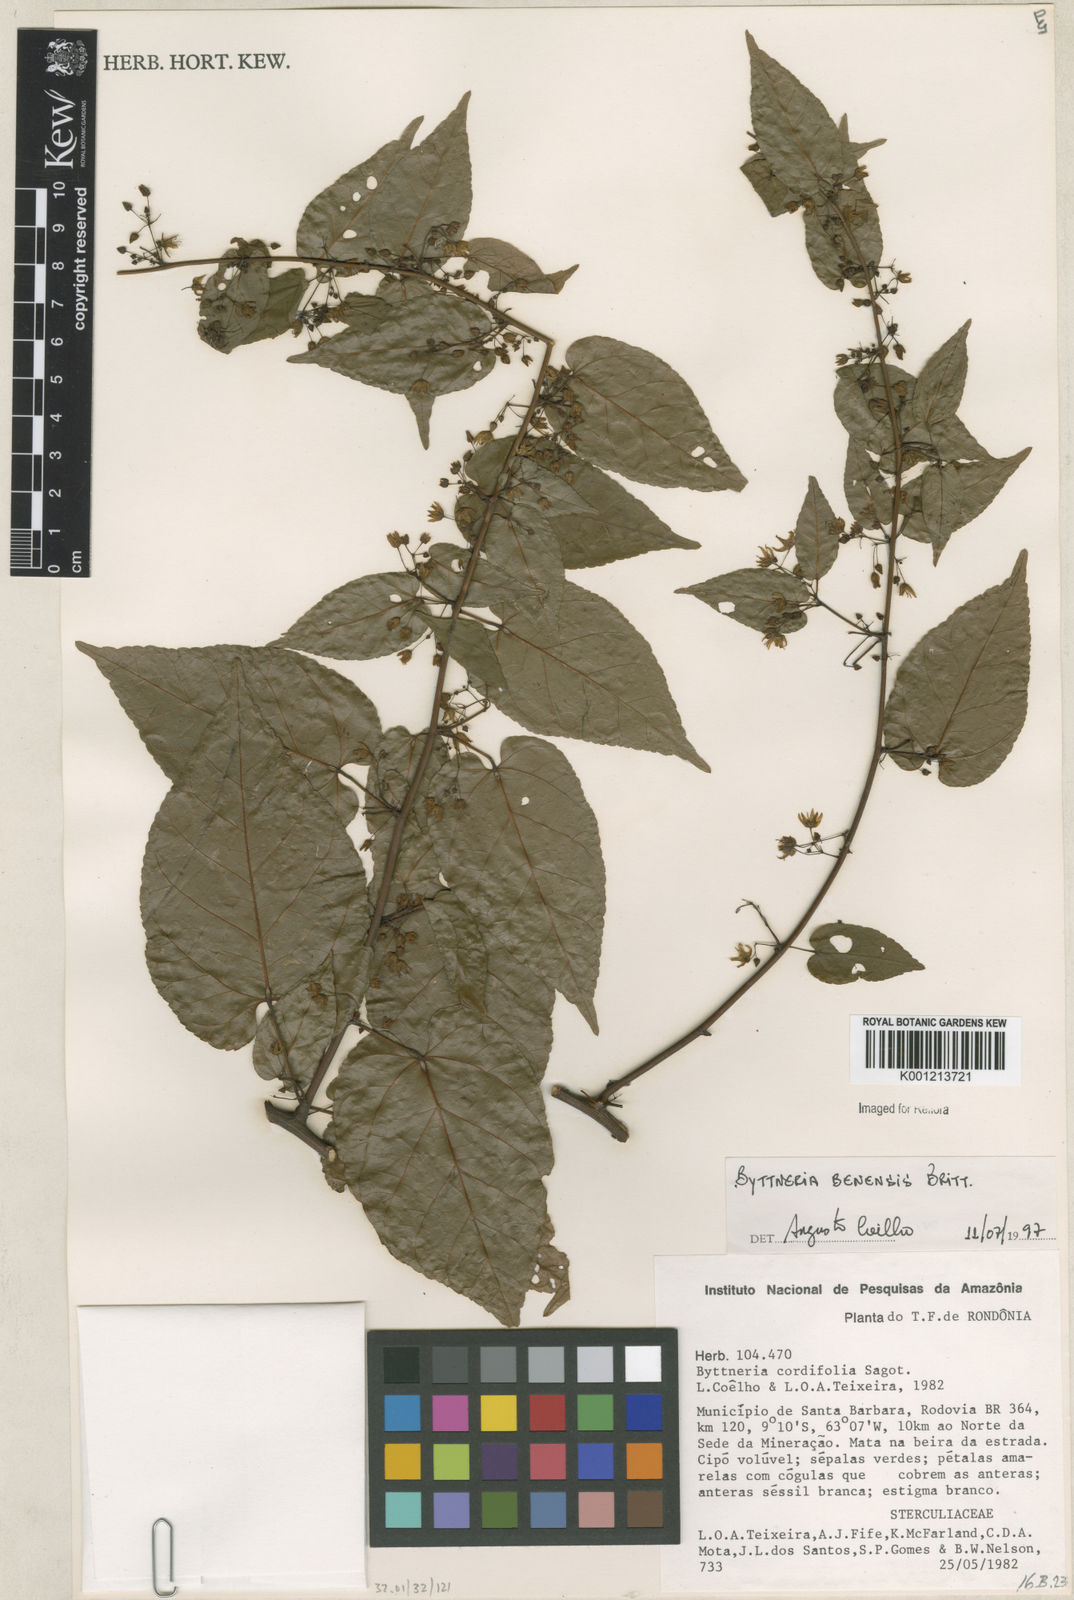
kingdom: Plantae
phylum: Tracheophyta
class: Magnoliopsida
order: Malvales
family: Malvaceae
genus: Byttneria
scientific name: Byttneria benensis
